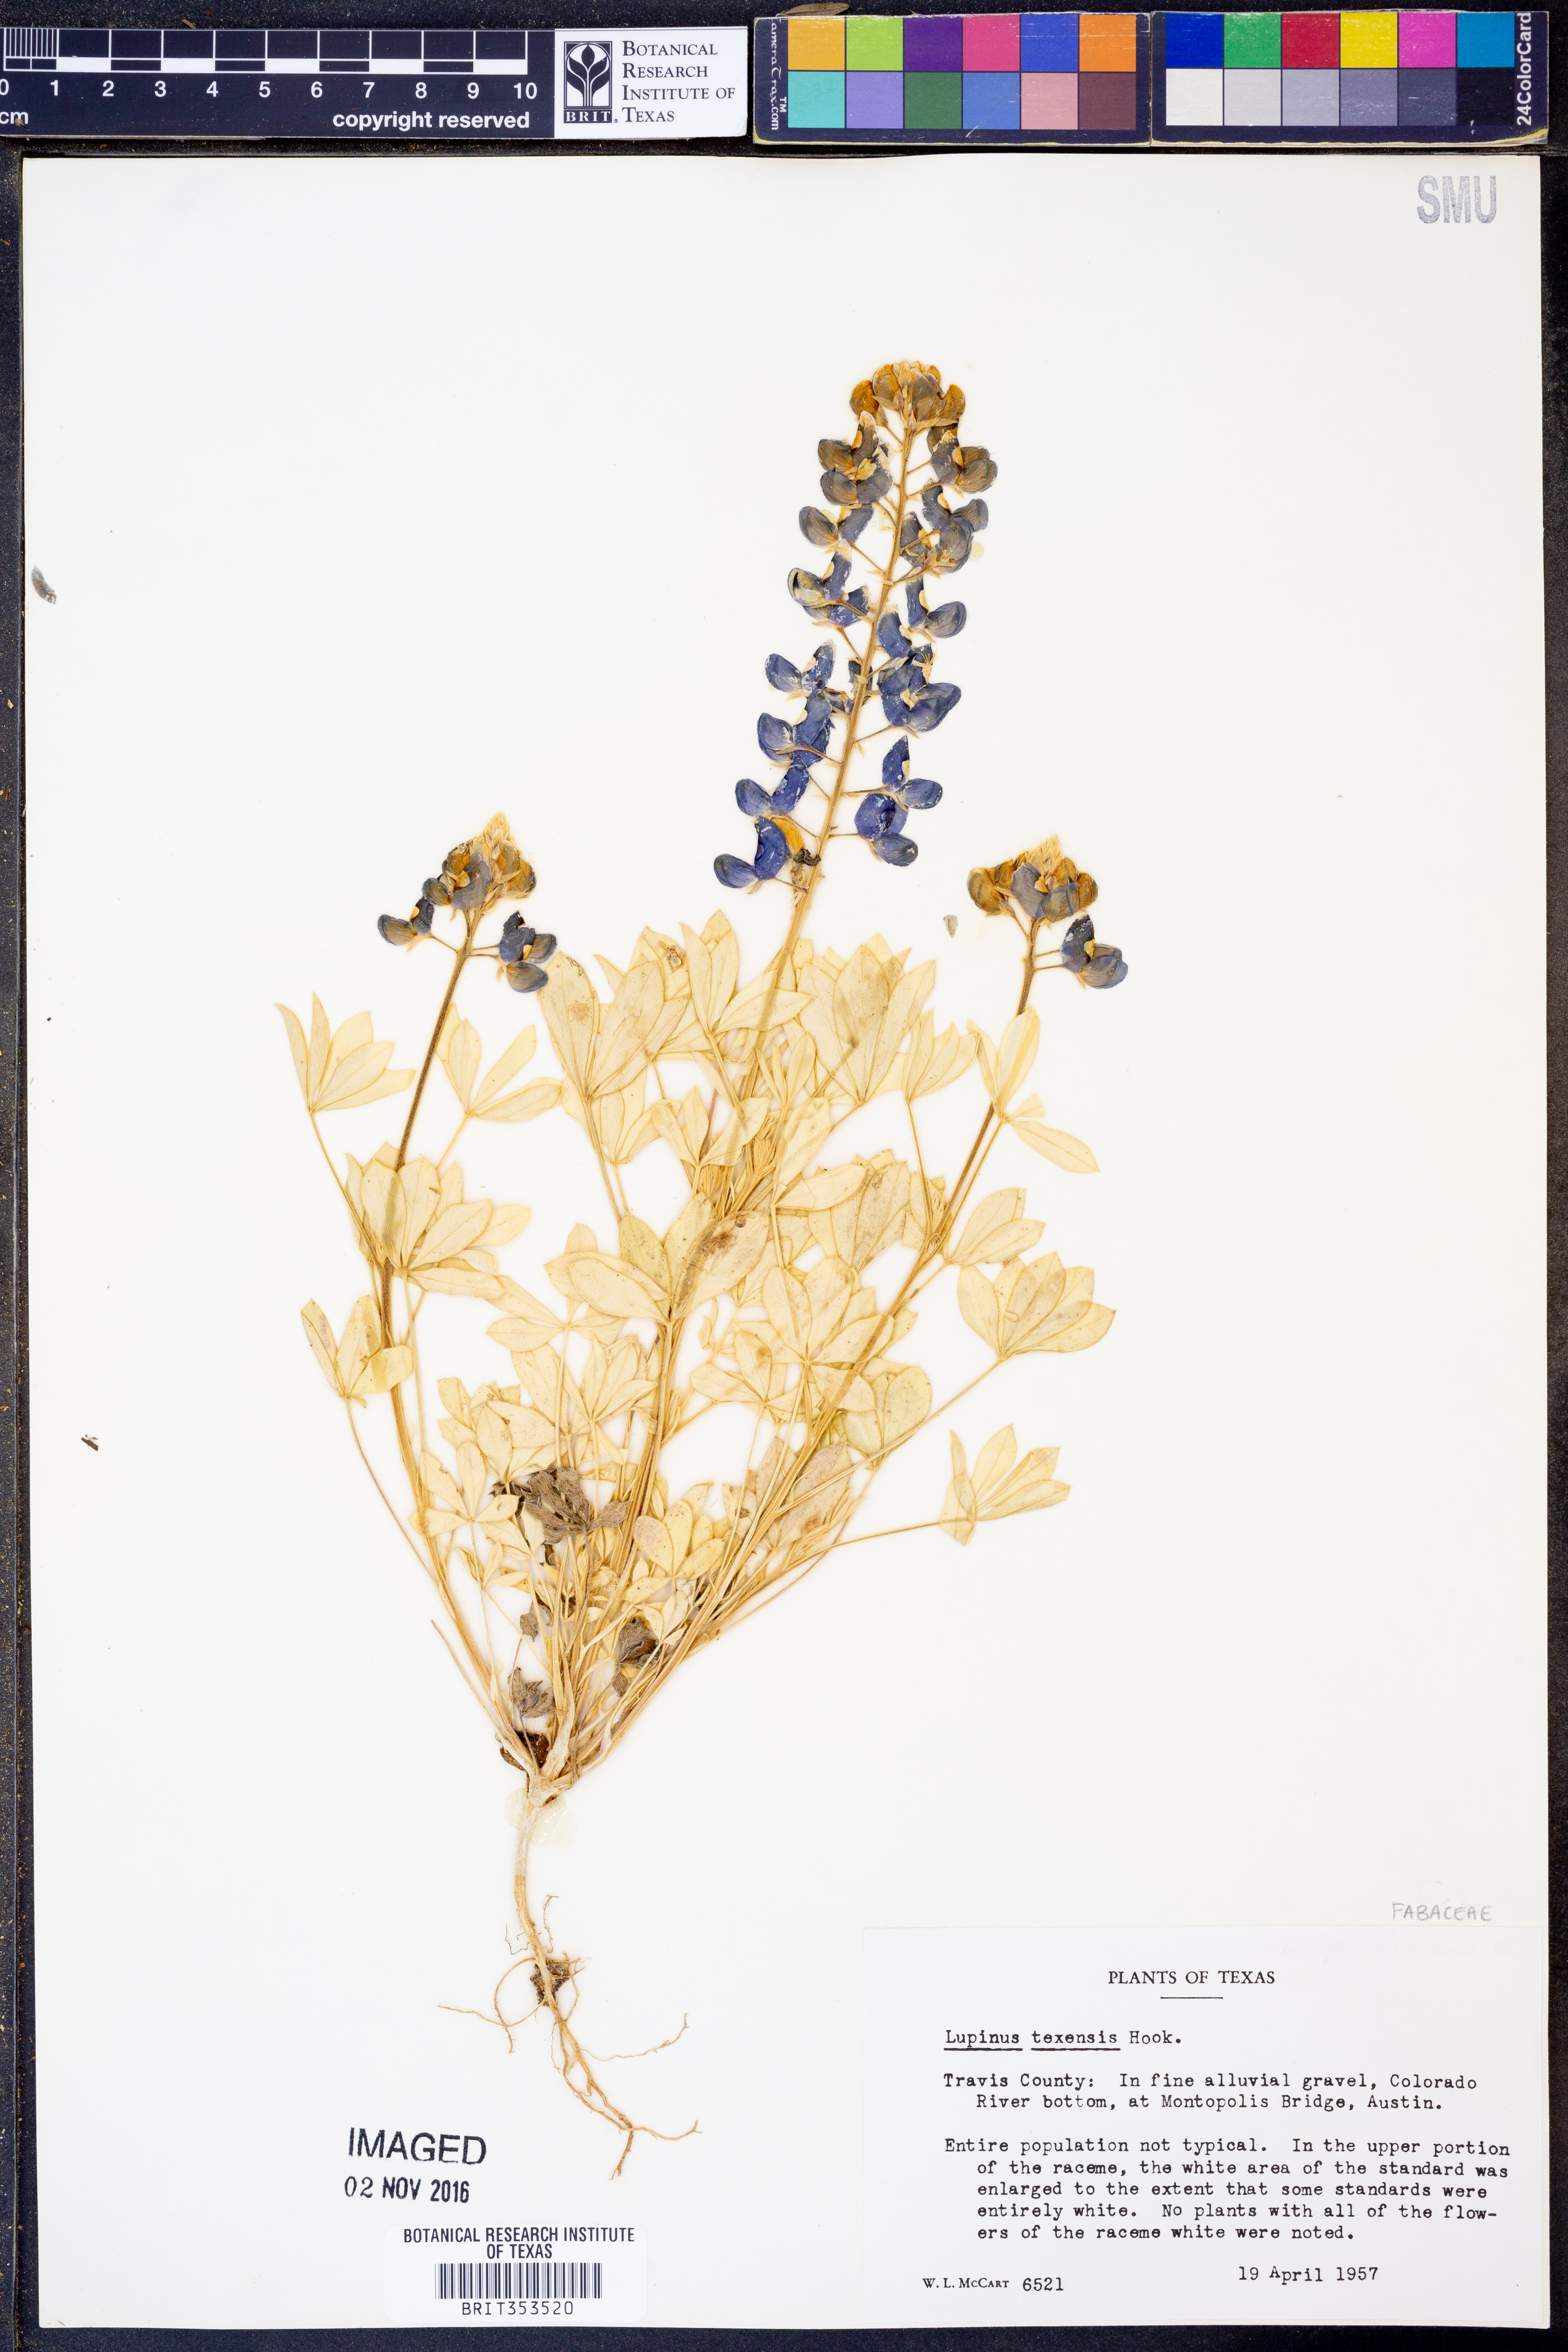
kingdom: Plantae
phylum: Tracheophyta
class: Magnoliopsida
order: Fabales
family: Fabaceae
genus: Lupinus
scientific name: Lupinus texensis
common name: Texas bluebonnet
